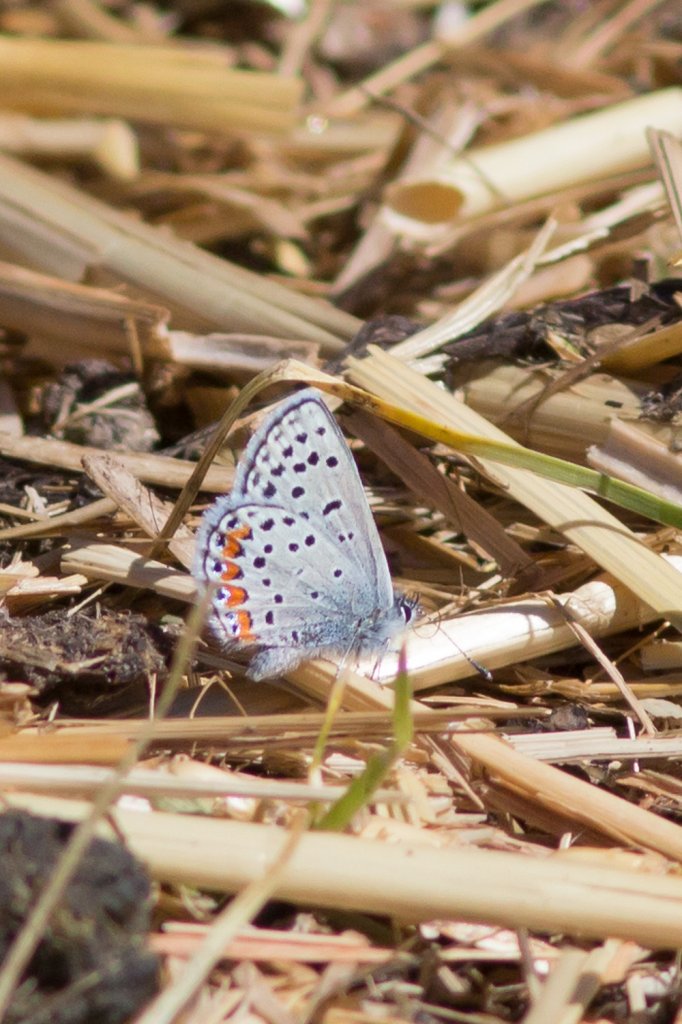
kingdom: Animalia
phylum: Arthropoda
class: Insecta
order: Lepidoptera
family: Lycaenidae
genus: Plebejus
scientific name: Plebejus acmon
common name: Acmon Blue
